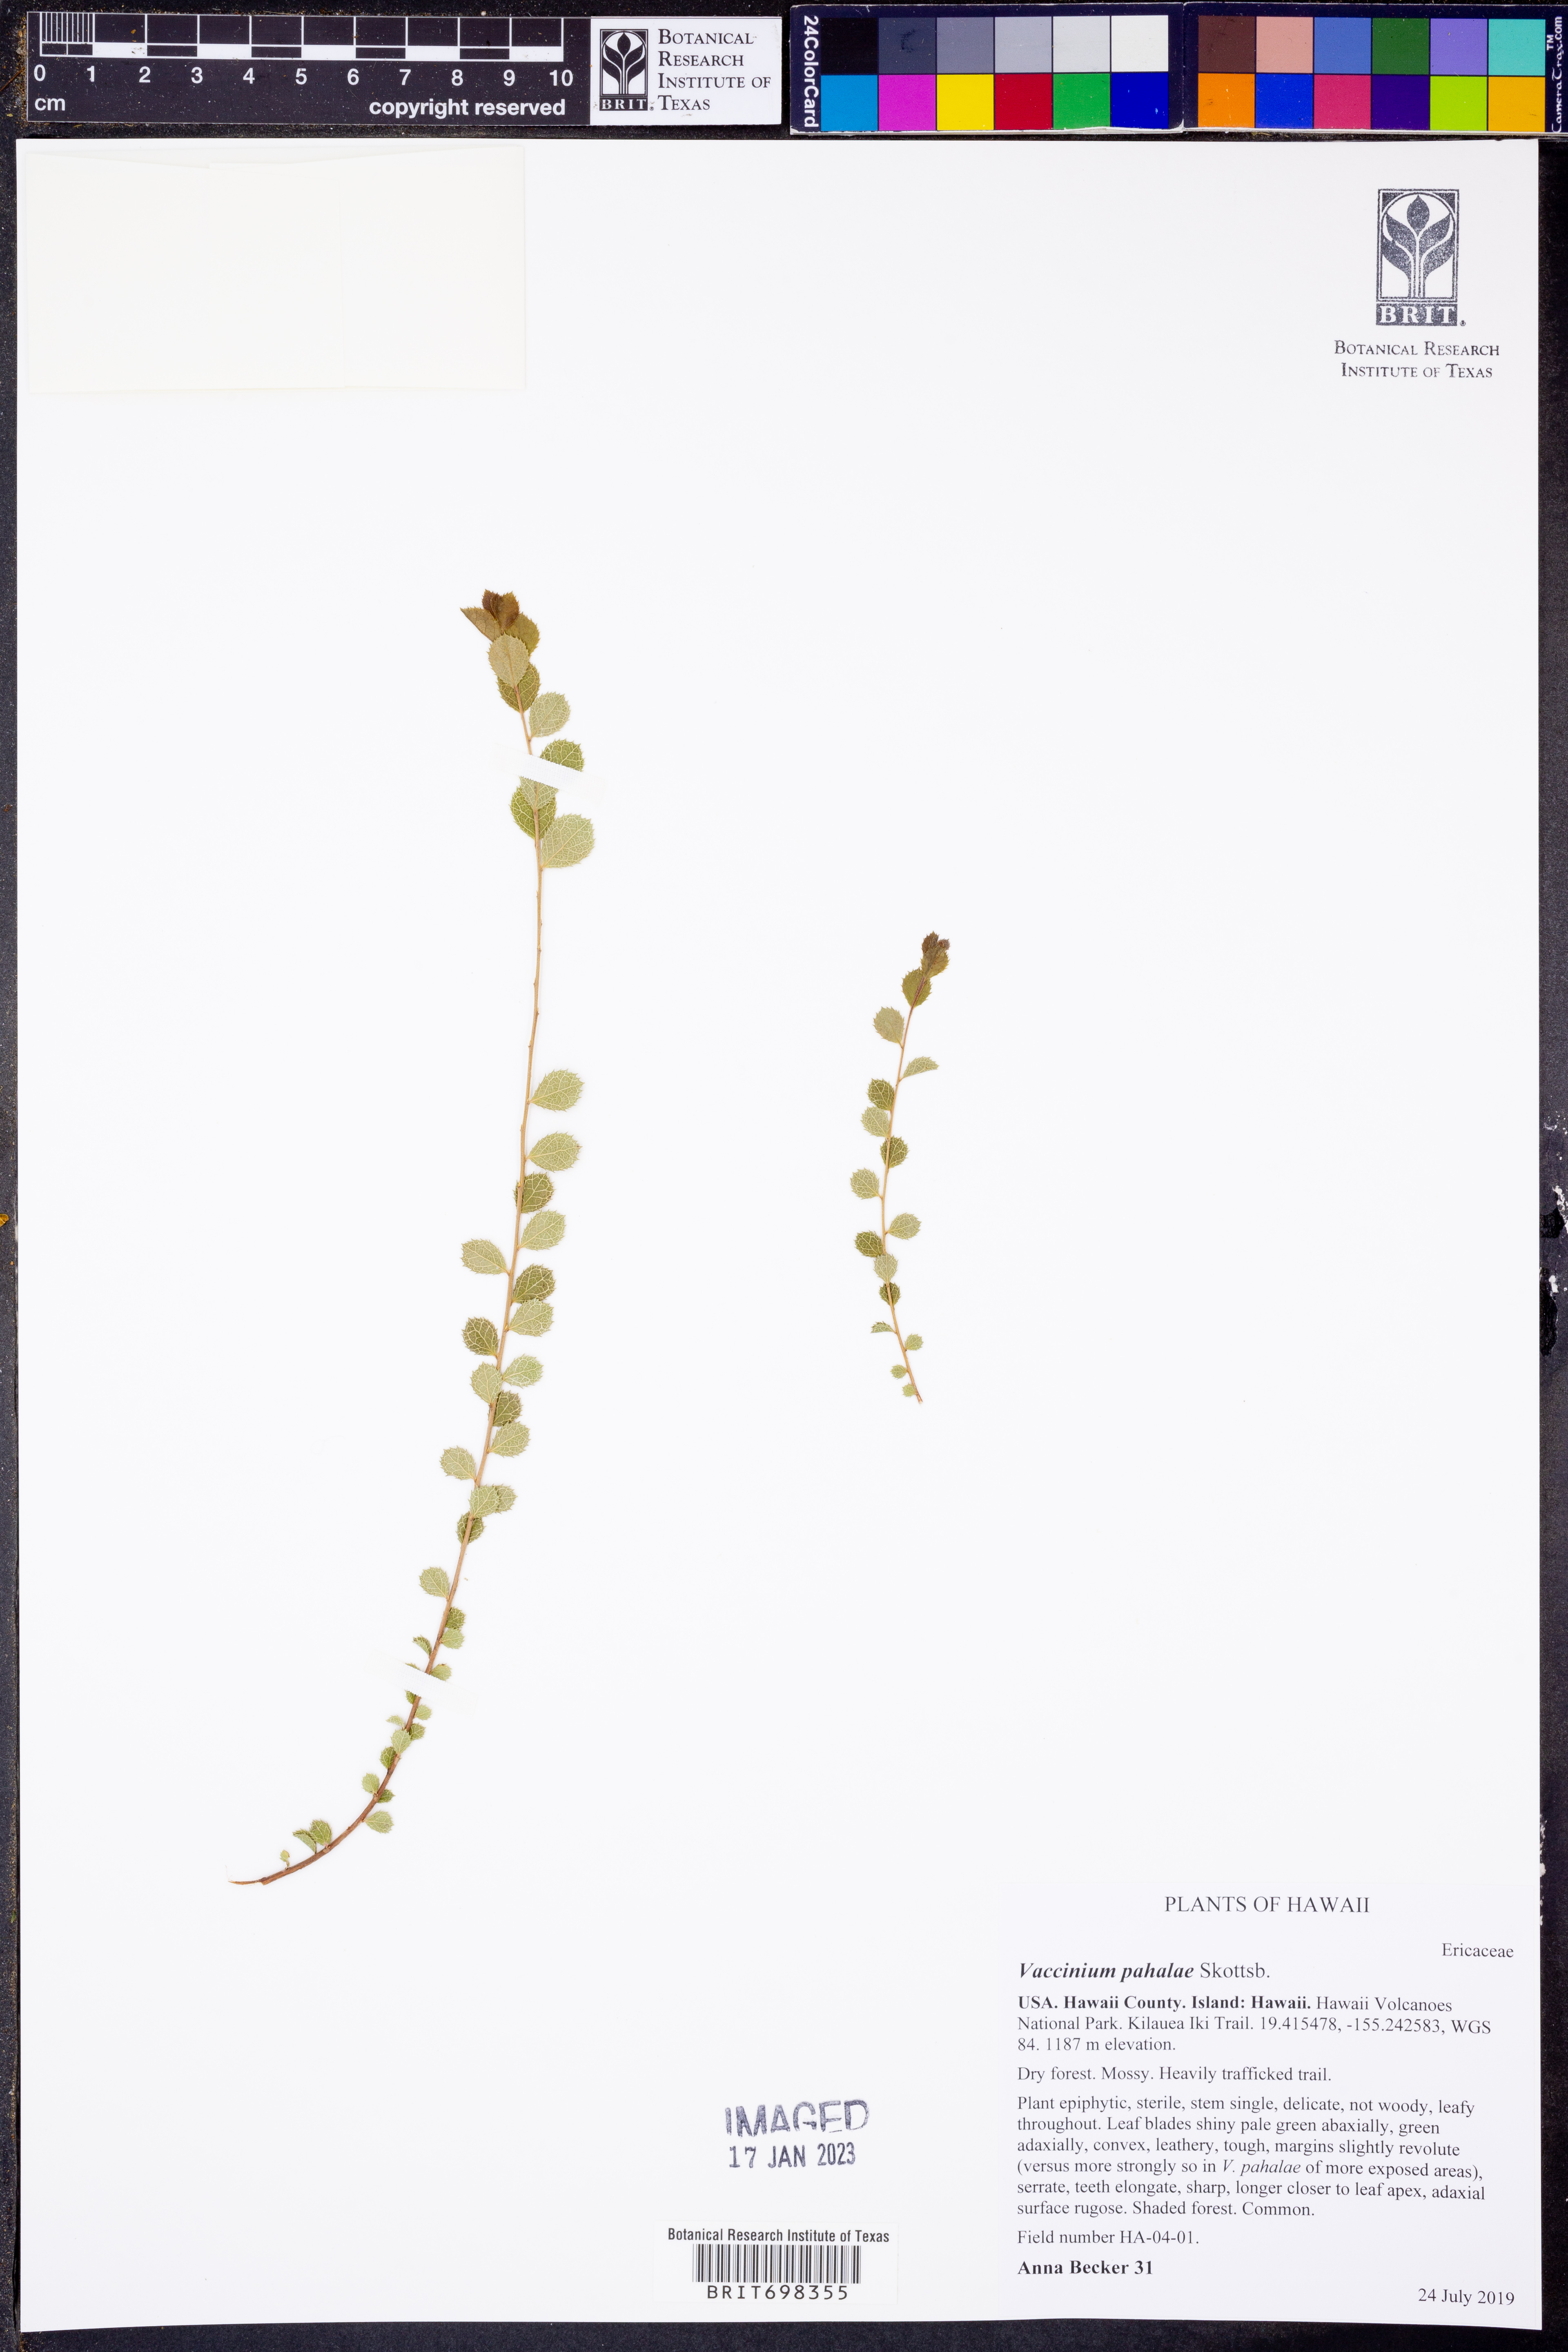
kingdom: Plantae
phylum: Tracheophyta
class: Magnoliopsida
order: Ericales
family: Ericaceae
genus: Vaccinium
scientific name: Vaccinium reticulatum
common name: Ohelo
